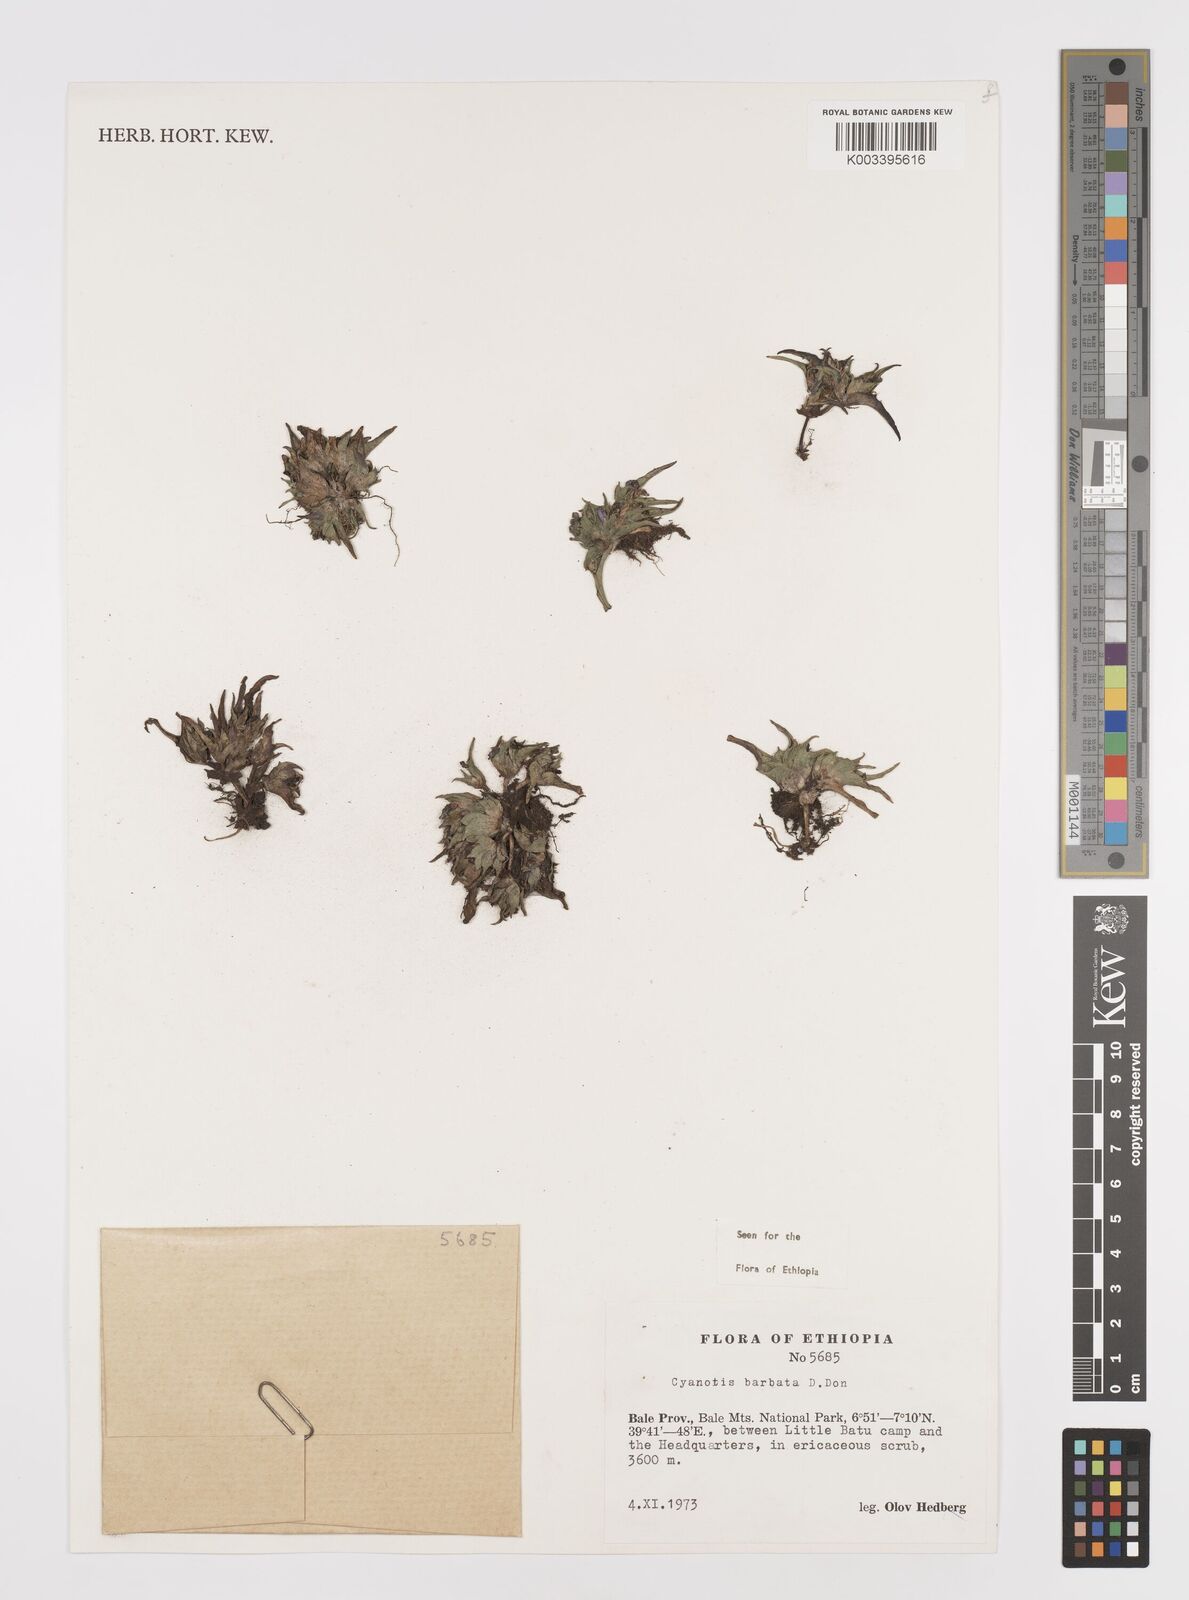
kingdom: Plantae
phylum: Tracheophyta
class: Liliopsida
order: Commelinales
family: Commelinaceae
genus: Cyanotis
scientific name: Cyanotis vaga
